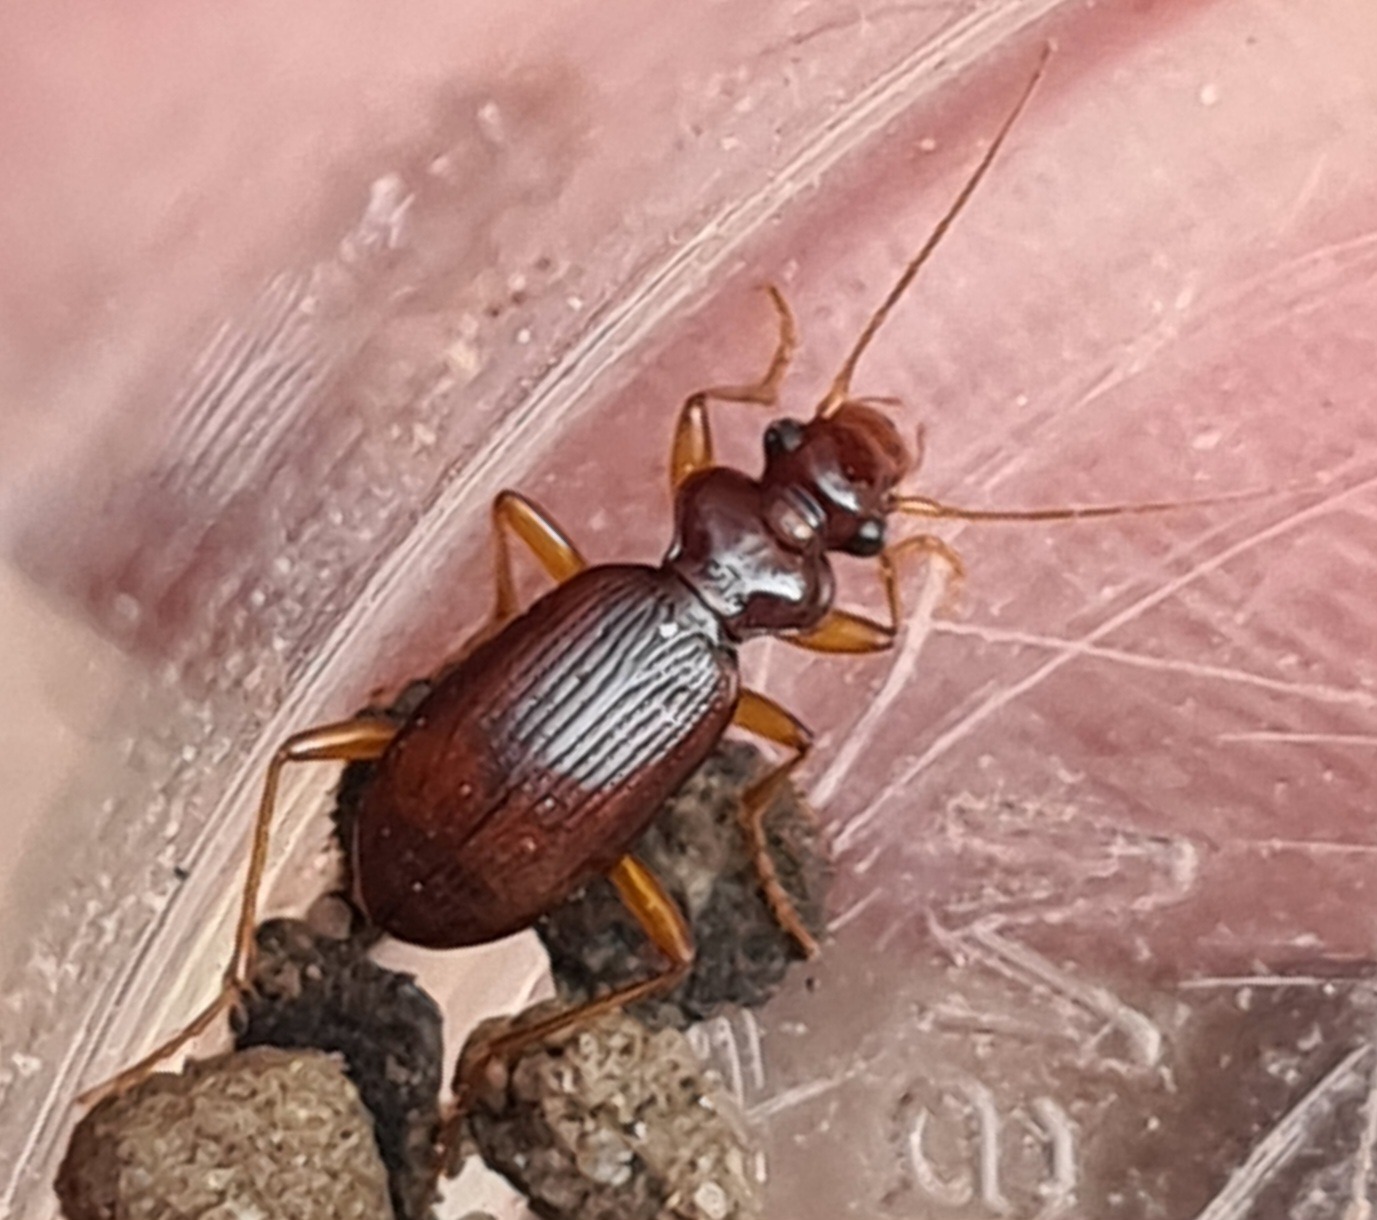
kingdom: Animalia
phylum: Arthropoda
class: Insecta
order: Coleoptera
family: Carabidae
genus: Leistus
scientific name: Leistus ferrugineus
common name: Brungul skægløber
